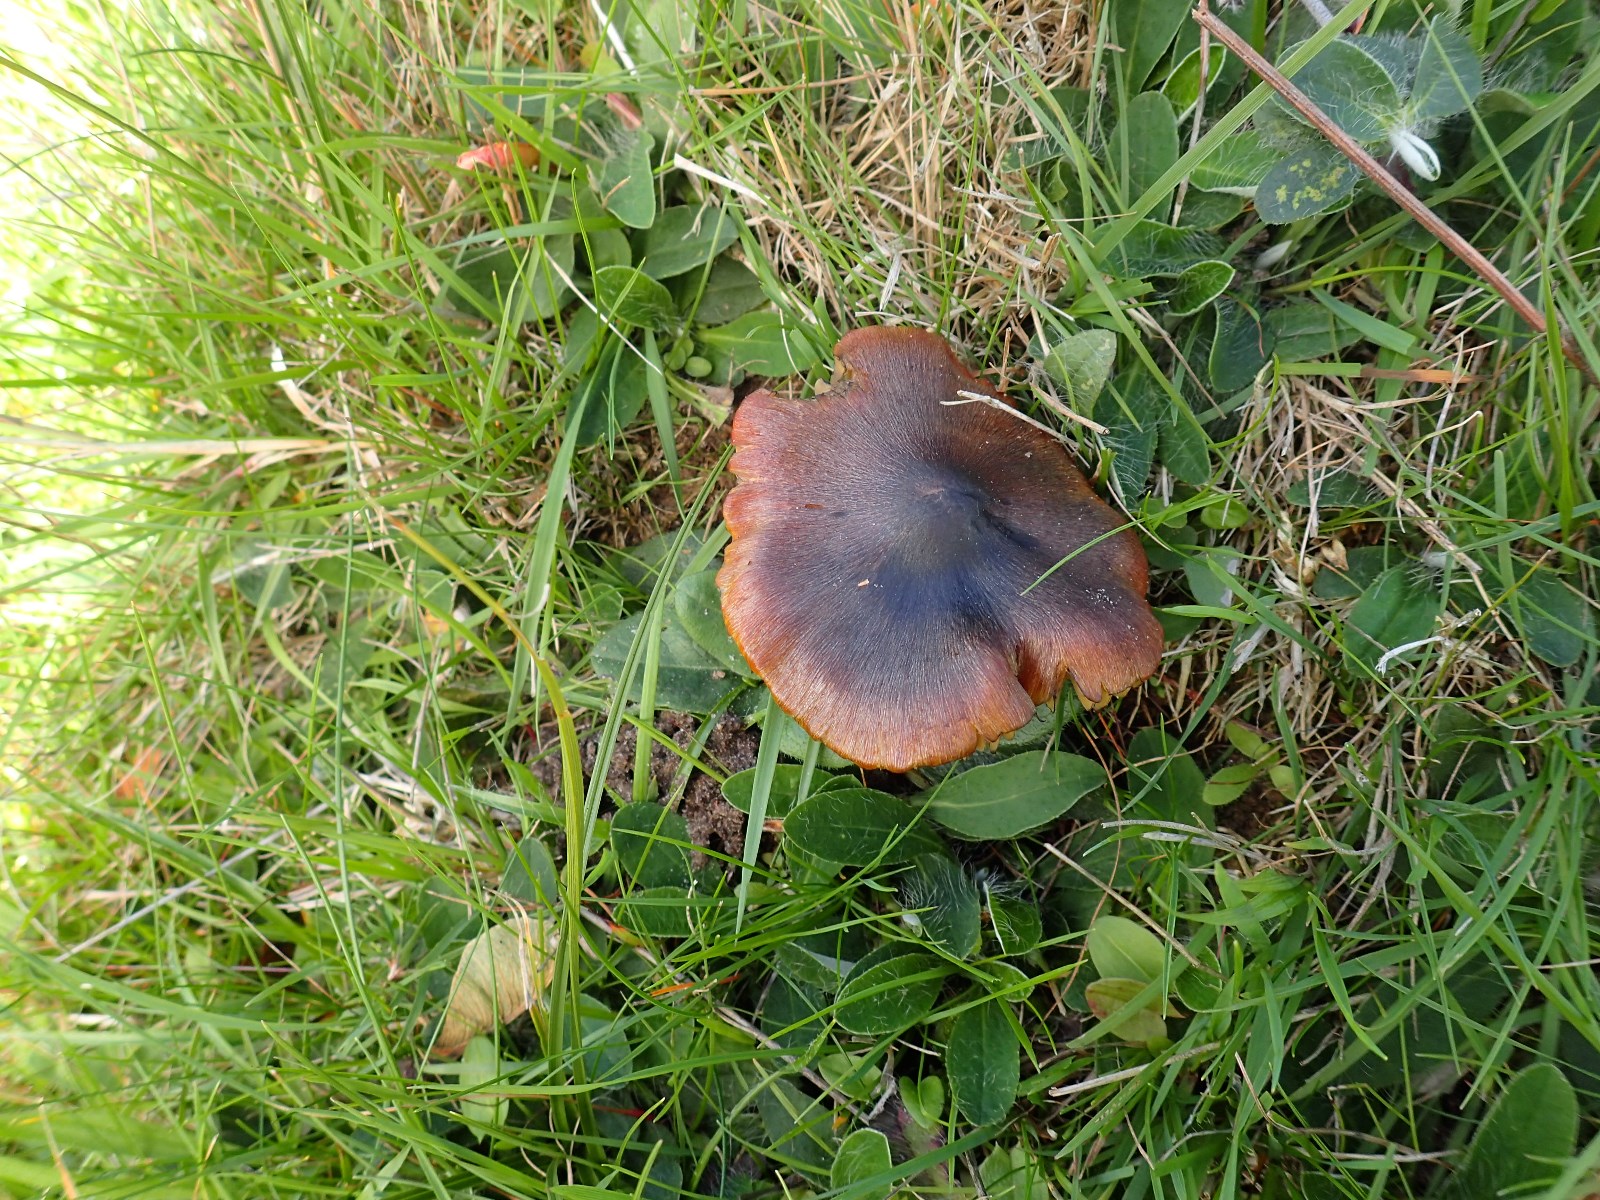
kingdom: Fungi
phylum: Basidiomycota
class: Agaricomycetes
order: Agaricales
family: Hygrophoraceae
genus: Hygrocybe
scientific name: Hygrocybe conica
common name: kegle-vokshat
